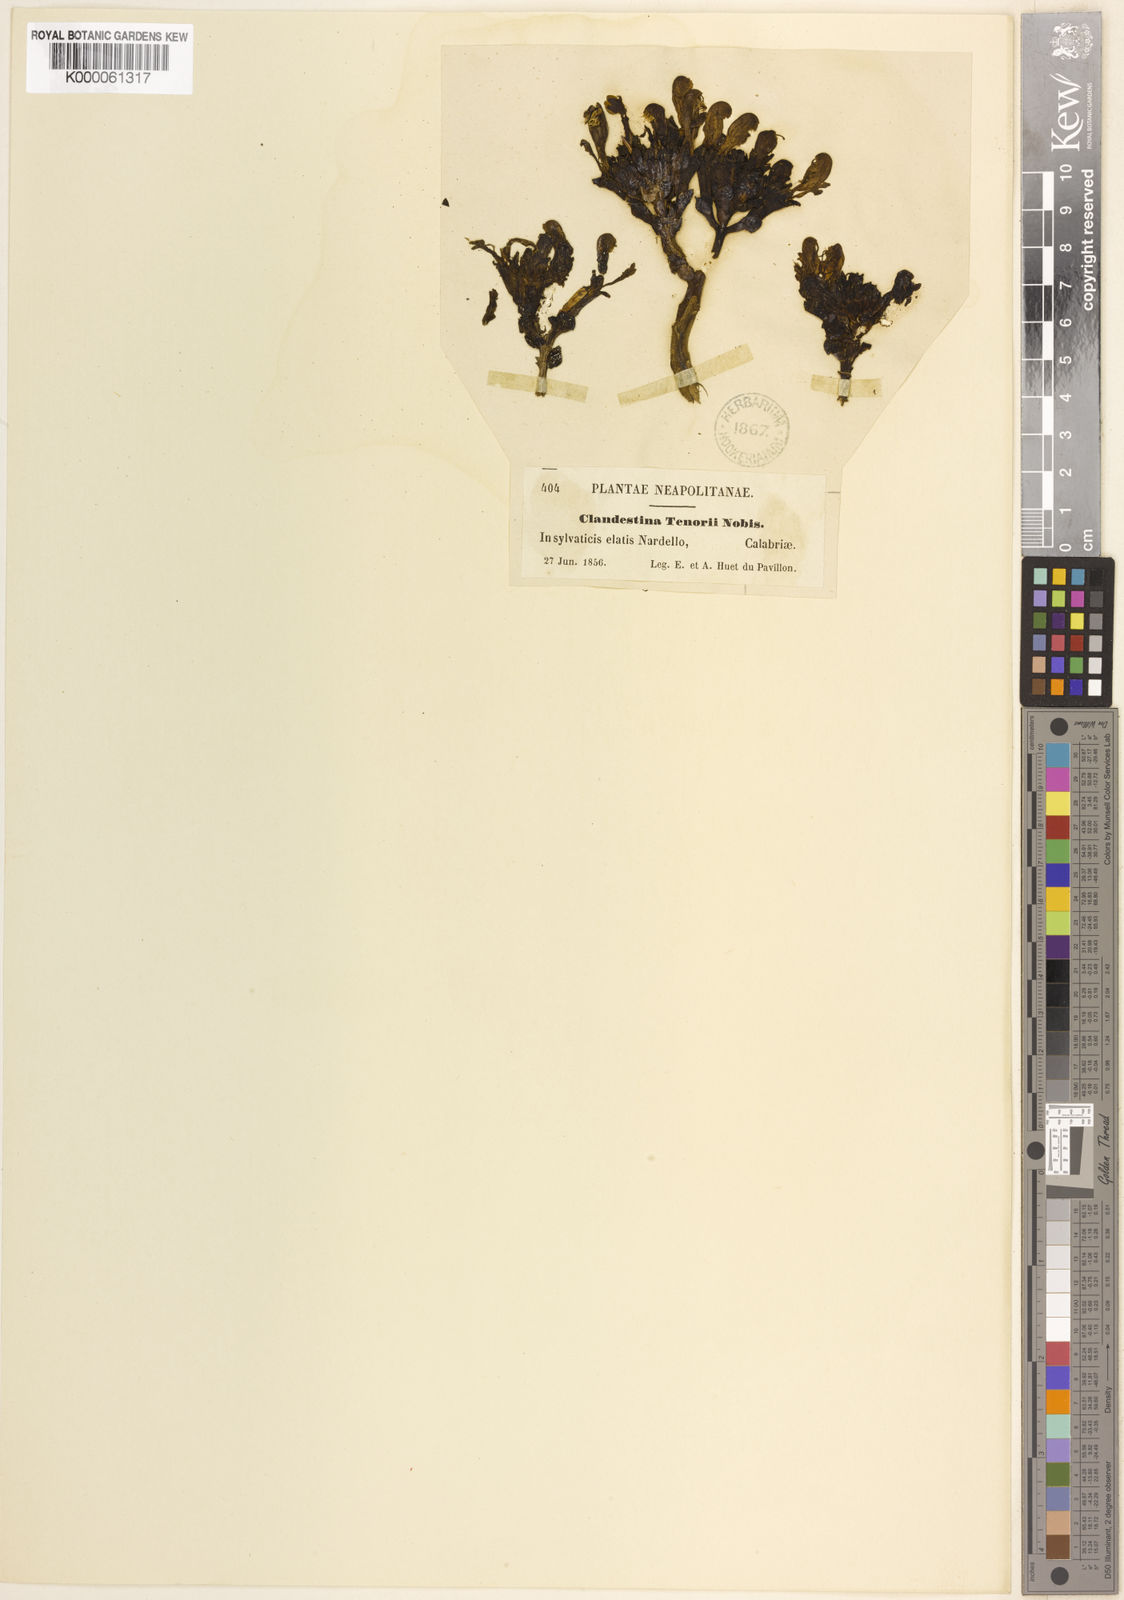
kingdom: Plantae
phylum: Tracheophyta
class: Magnoliopsida
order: Lamiales
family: Orobanchaceae
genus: Lathraea
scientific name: Lathraea
